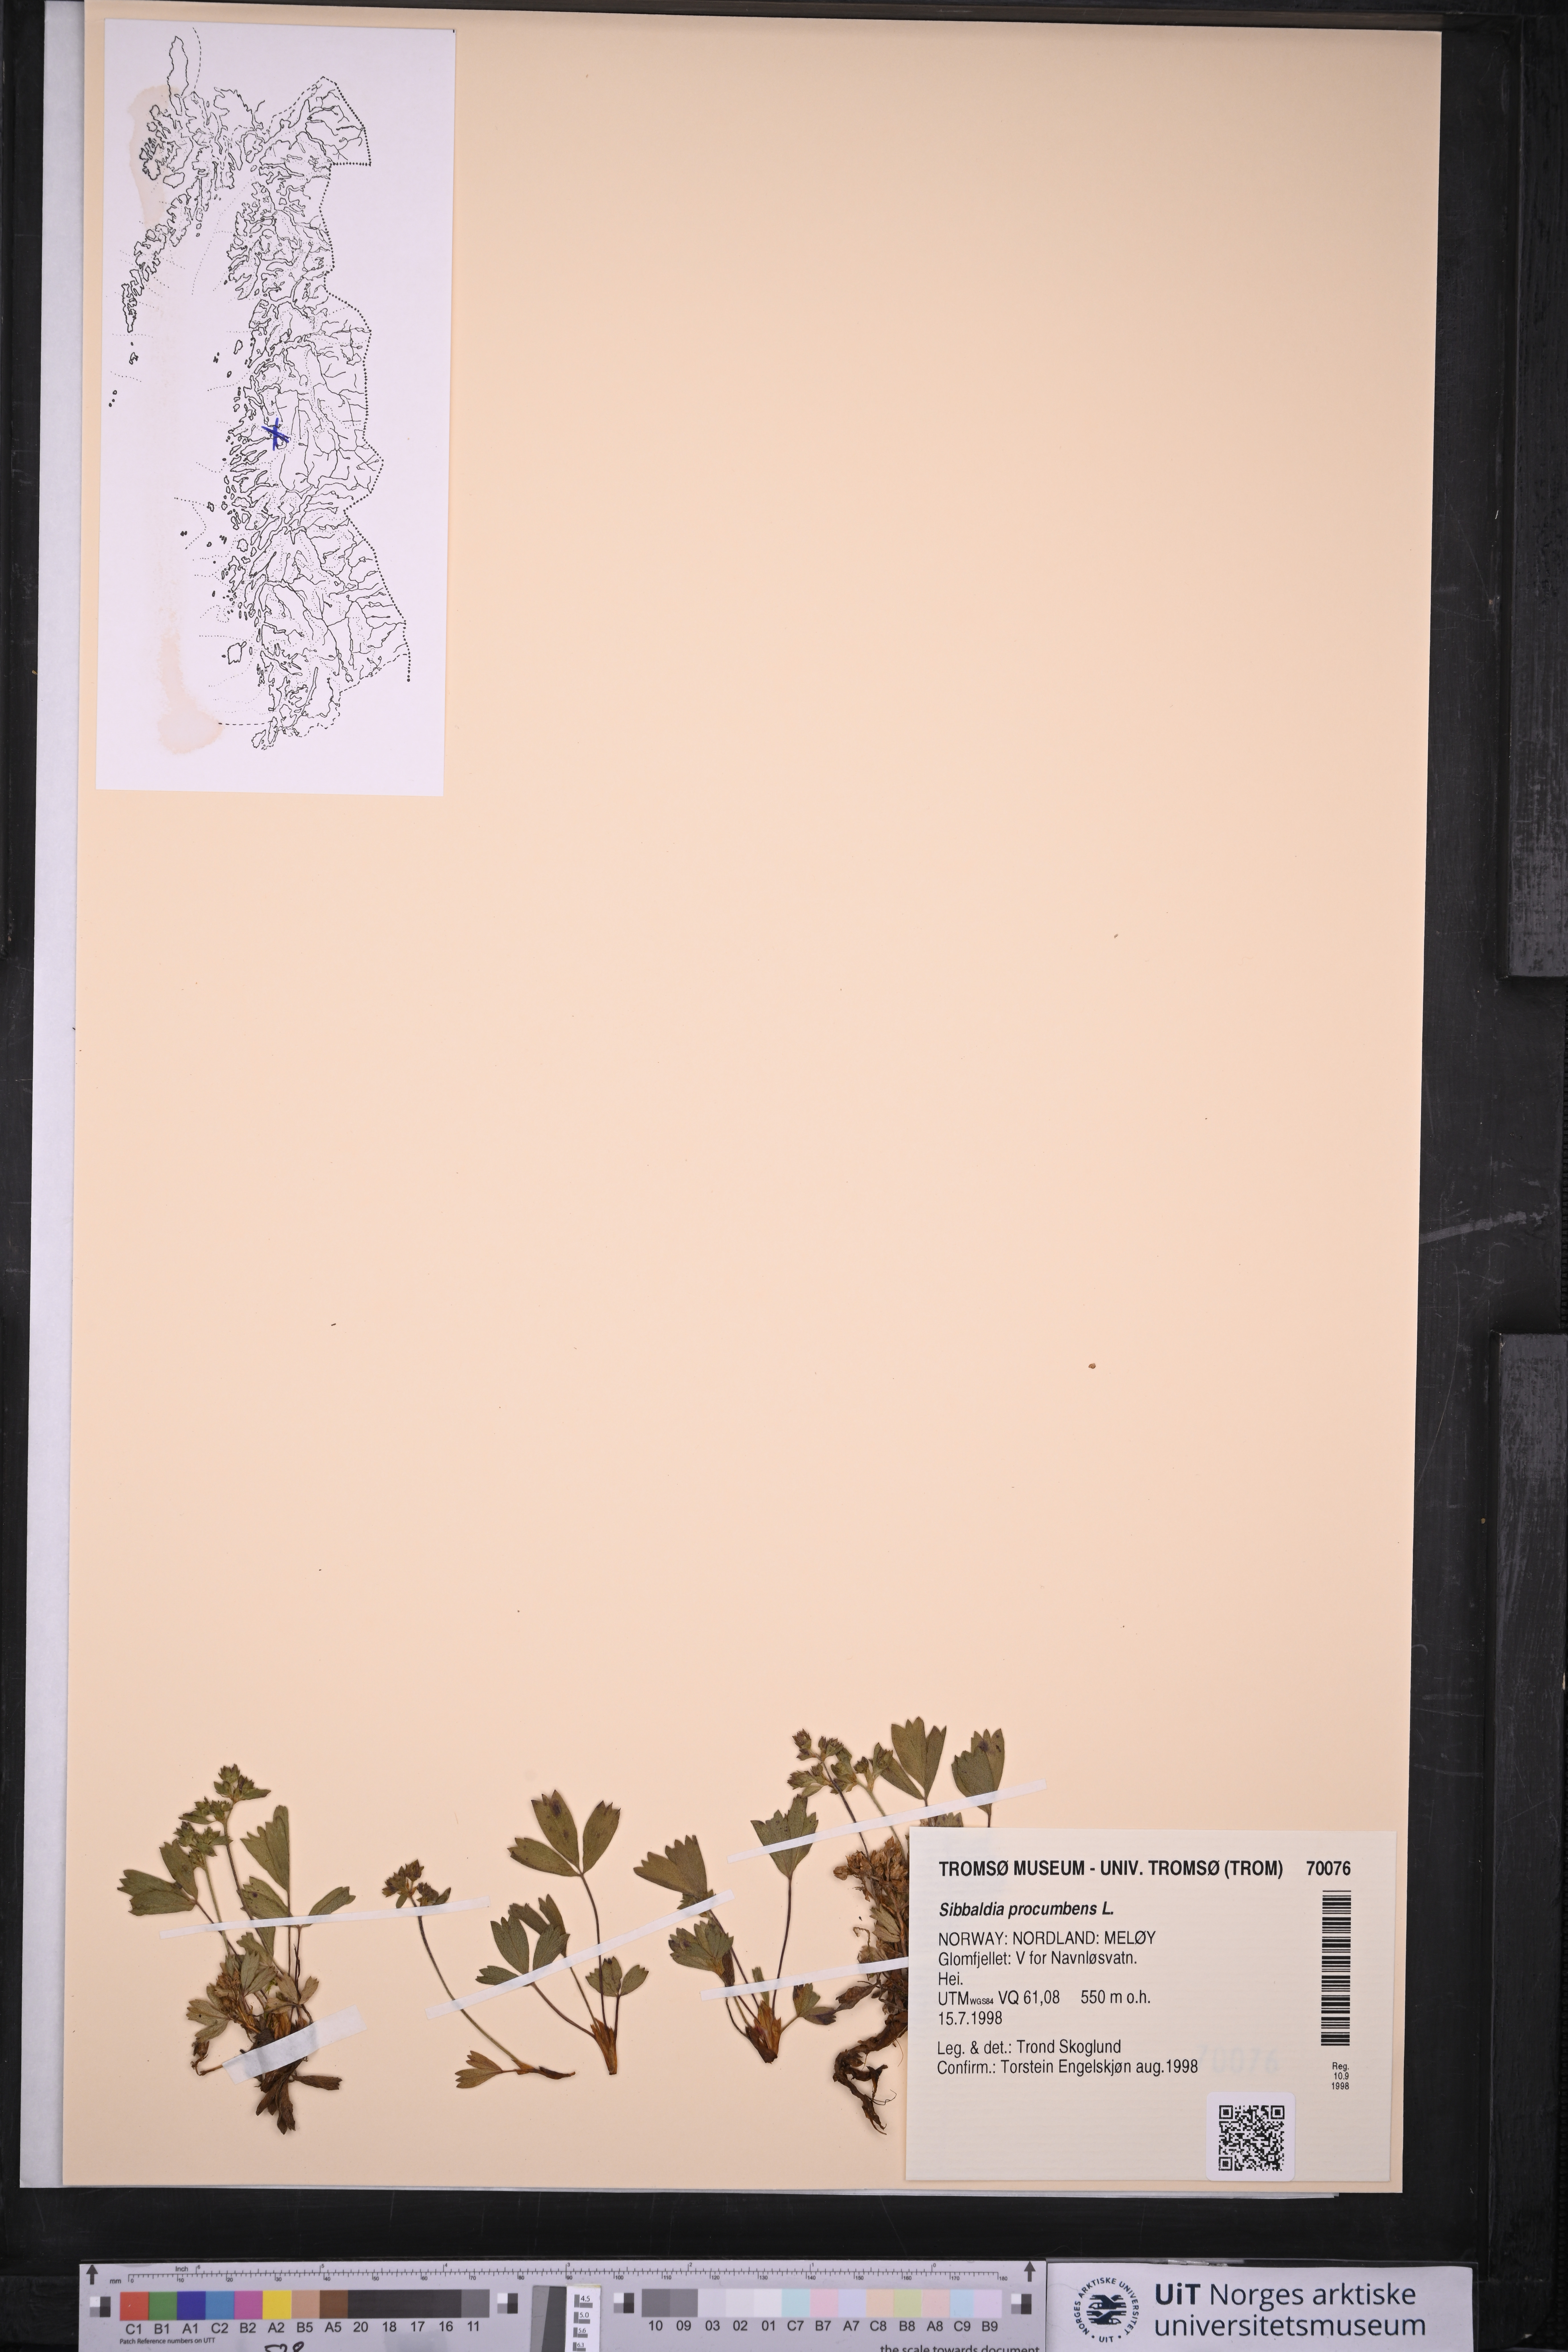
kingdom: Plantae
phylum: Tracheophyta
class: Magnoliopsida
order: Rosales
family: Rosaceae
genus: Sibbaldia
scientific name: Sibbaldia procumbens
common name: Creeping sibbaldia
